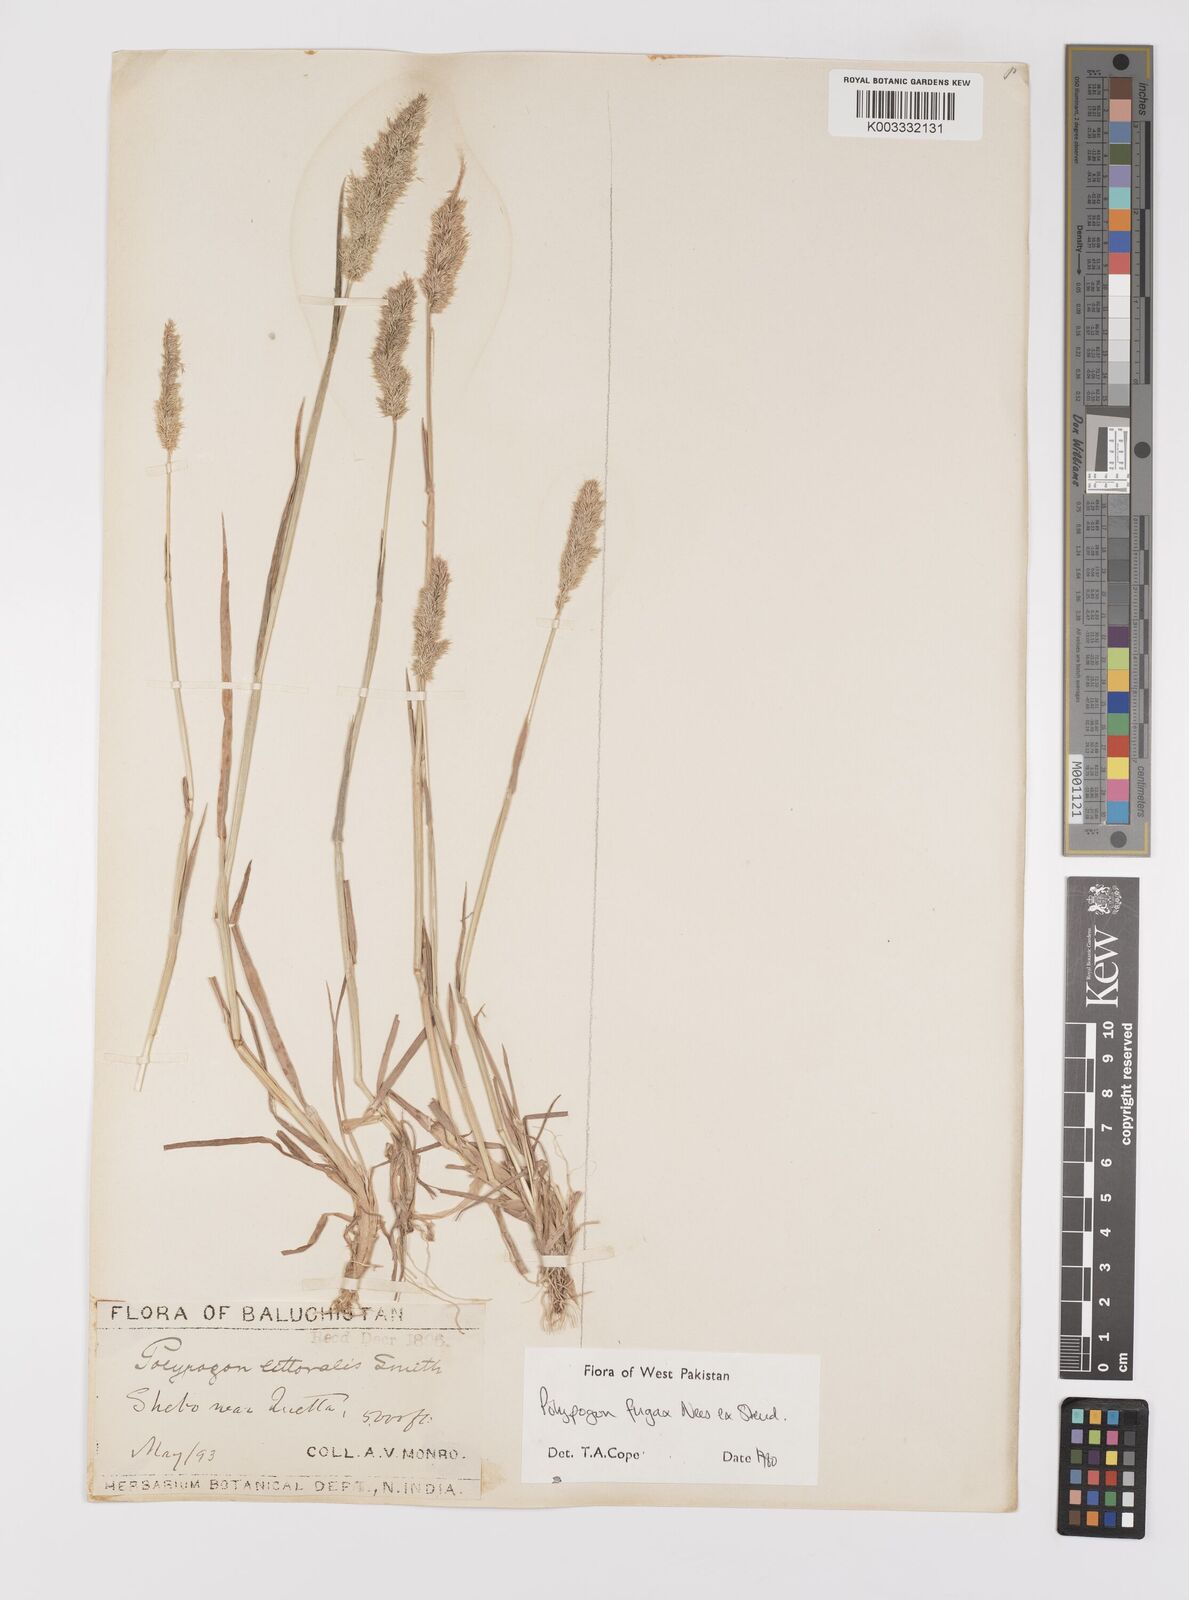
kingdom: Plantae
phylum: Tracheophyta
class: Liliopsida
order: Poales
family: Poaceae
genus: Polypogon
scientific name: Polypogon fugax
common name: Asia minor bluegrass
